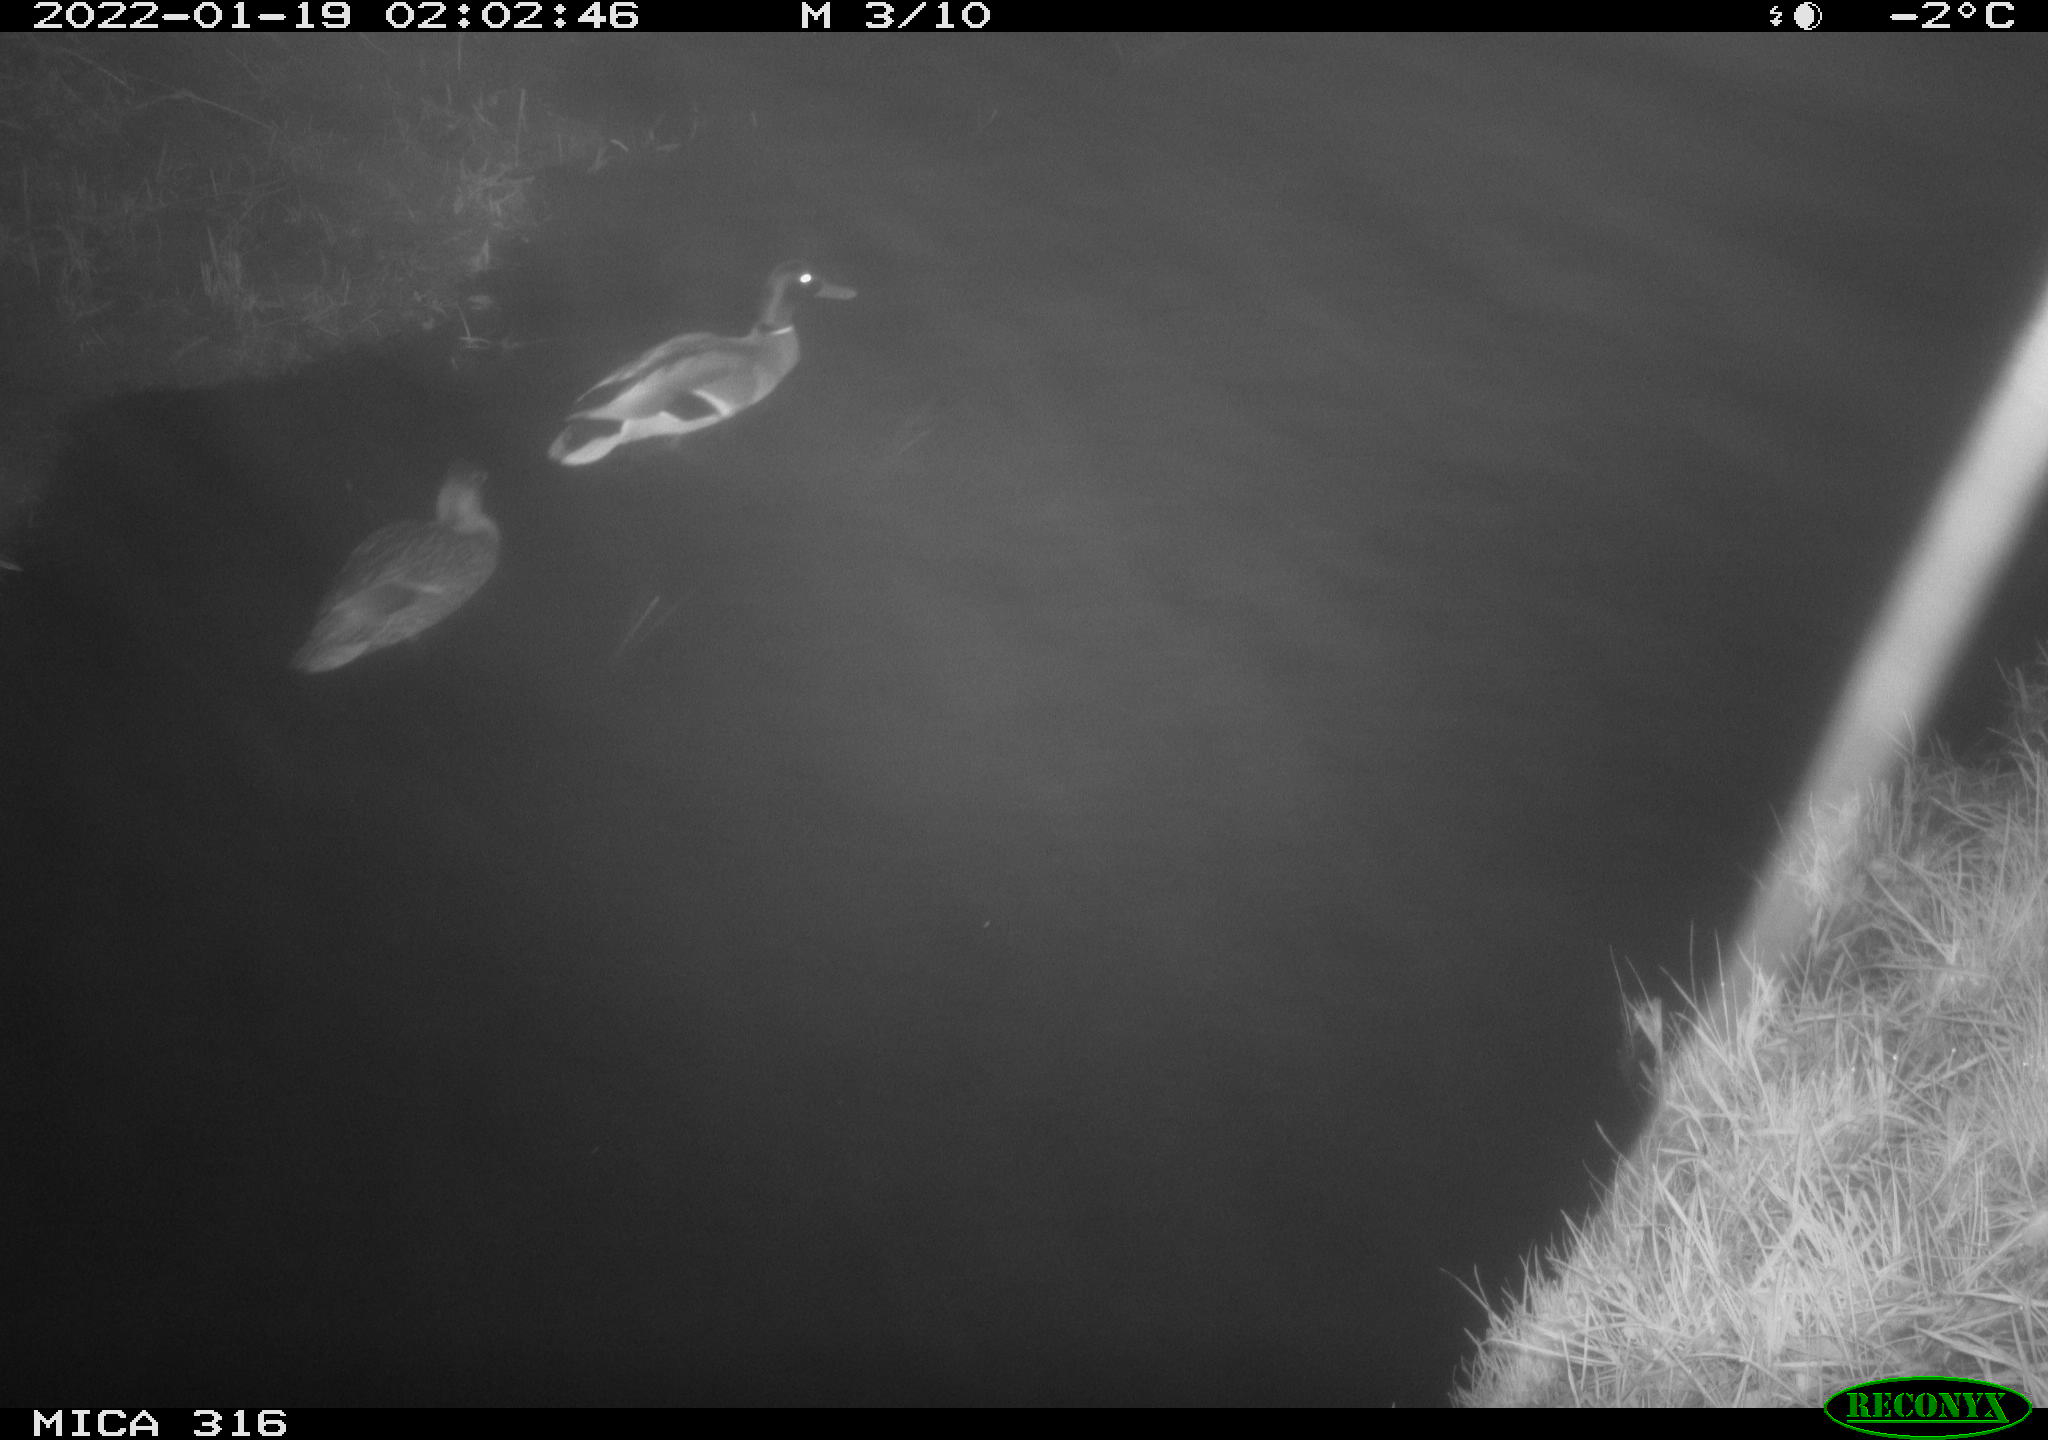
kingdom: Animalia
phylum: Chordata
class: Aves
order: Anseriformes
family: Anatidae
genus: Anas
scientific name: Anas
